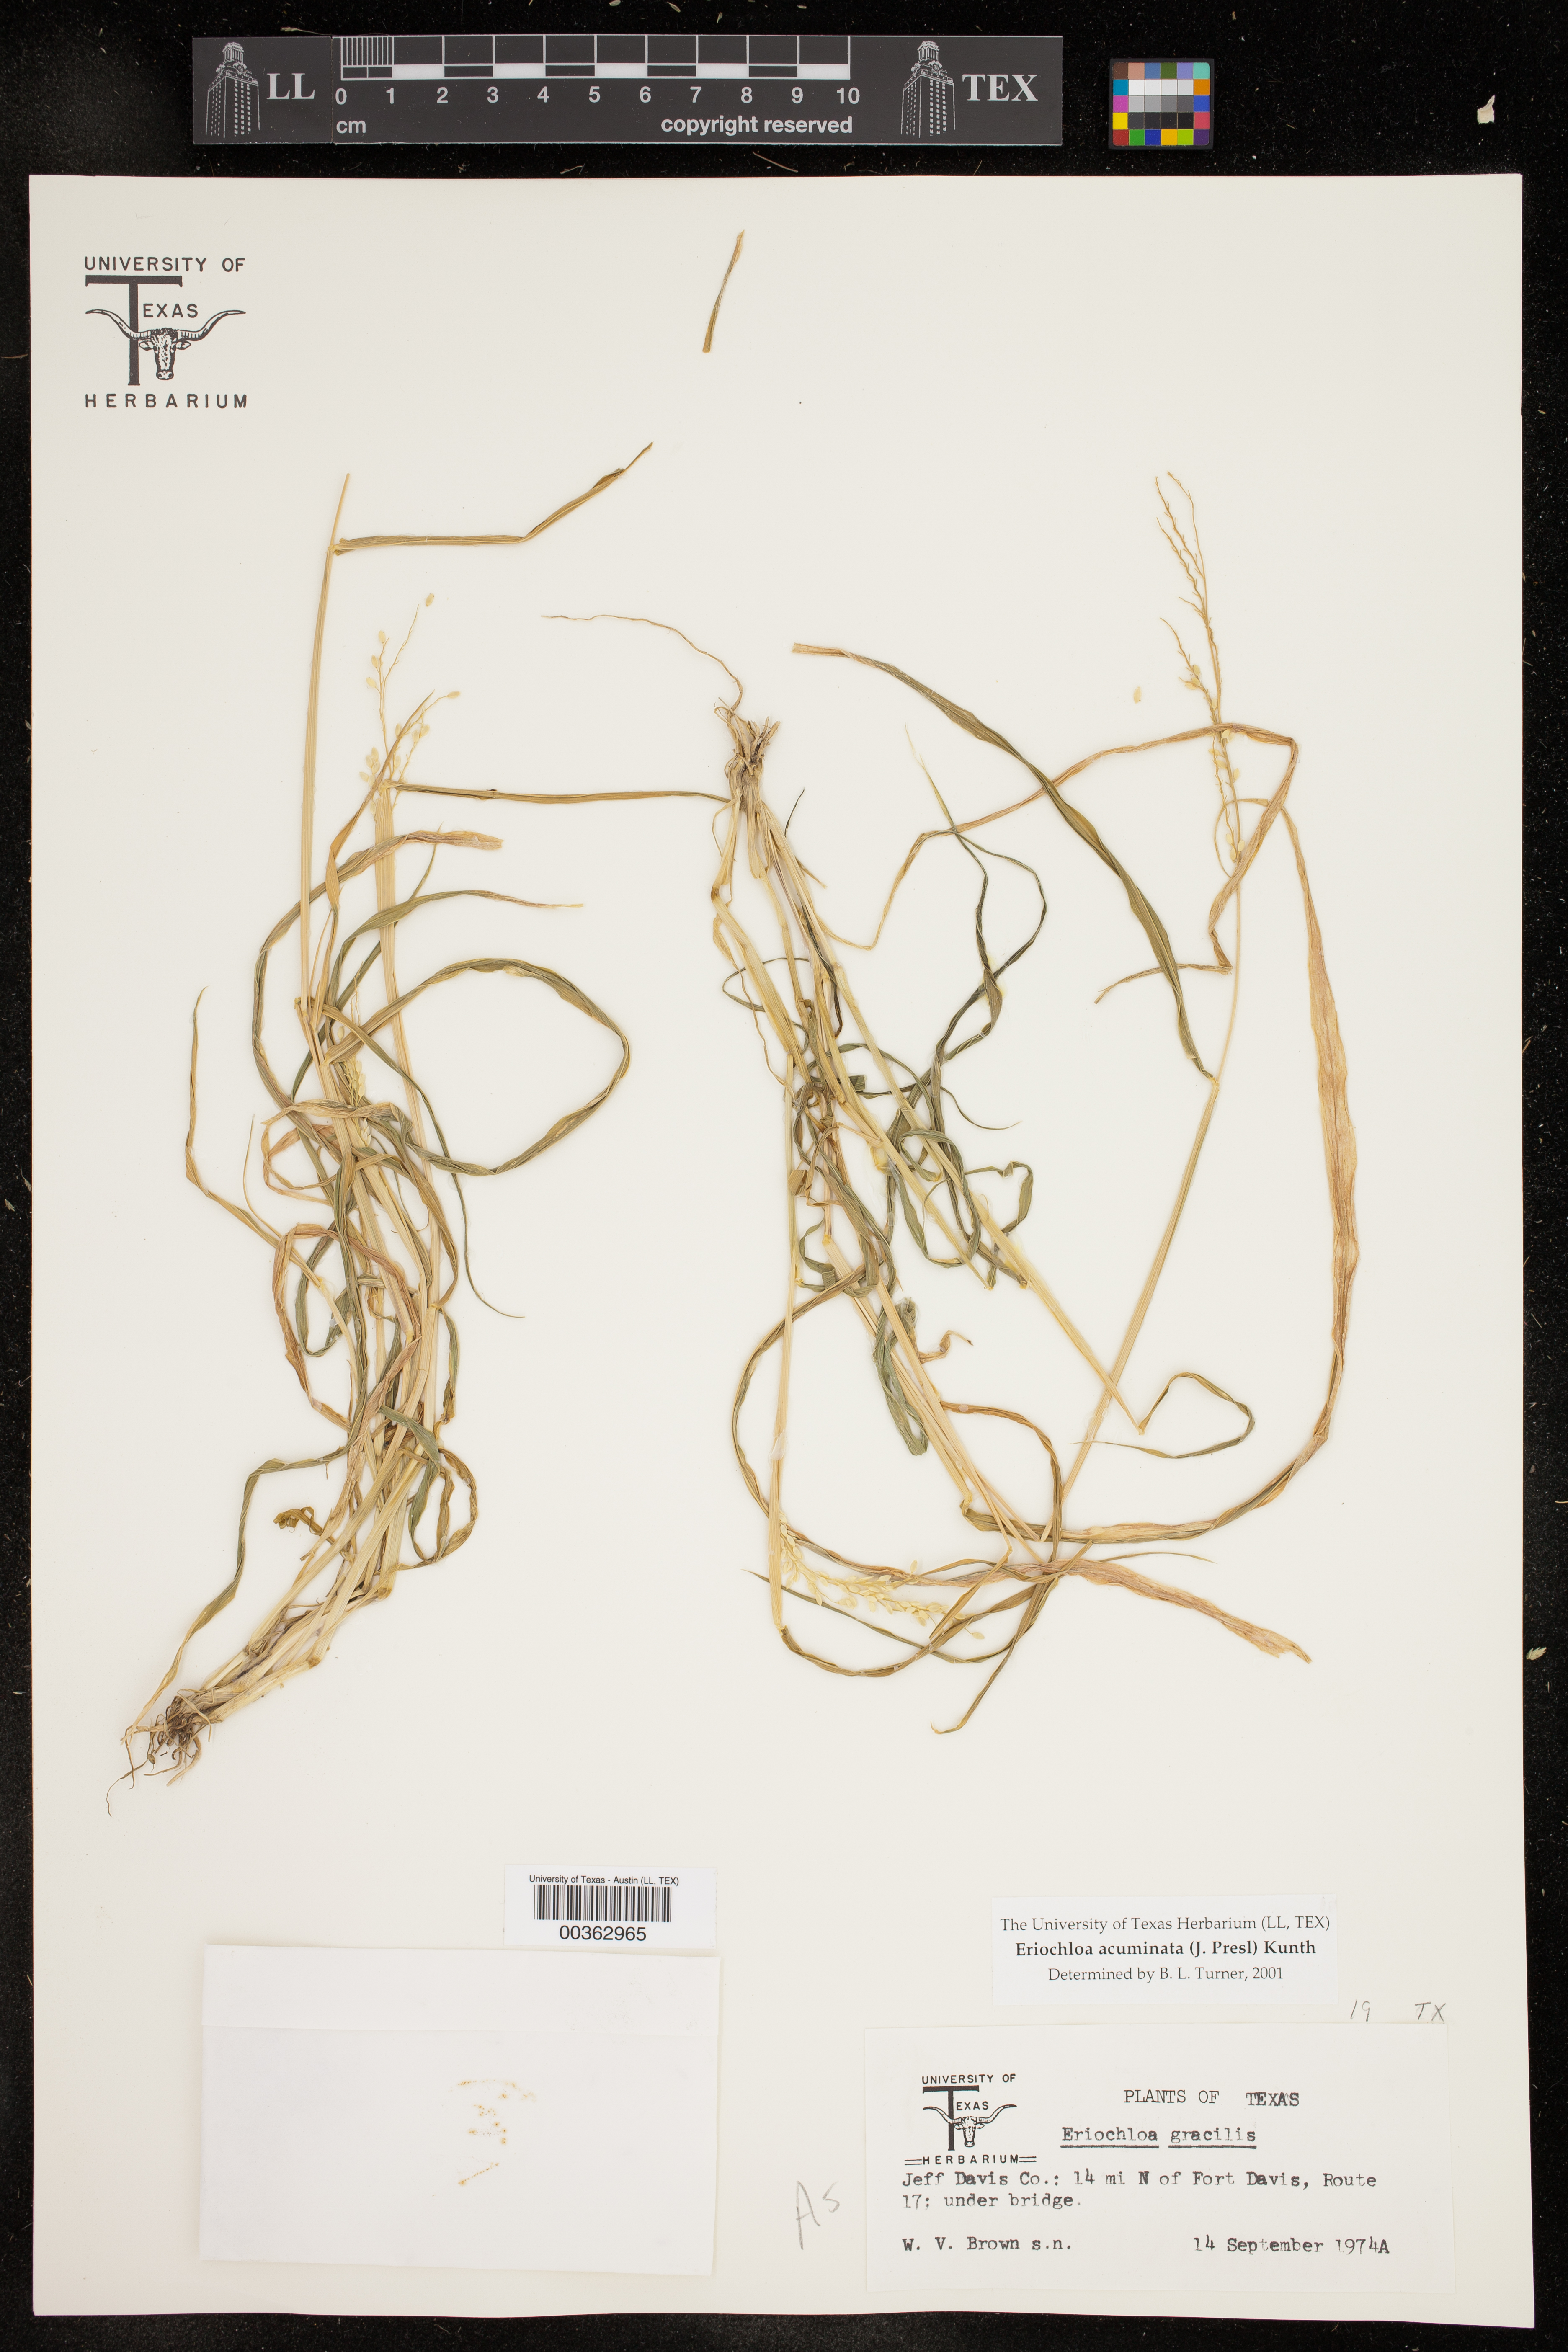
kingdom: Plantae
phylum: Tracheophyta
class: Liliopsida
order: Poales
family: Poaceae
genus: Eriochloa
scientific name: Eriochloa acuminata
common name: Southwestern cup grass
